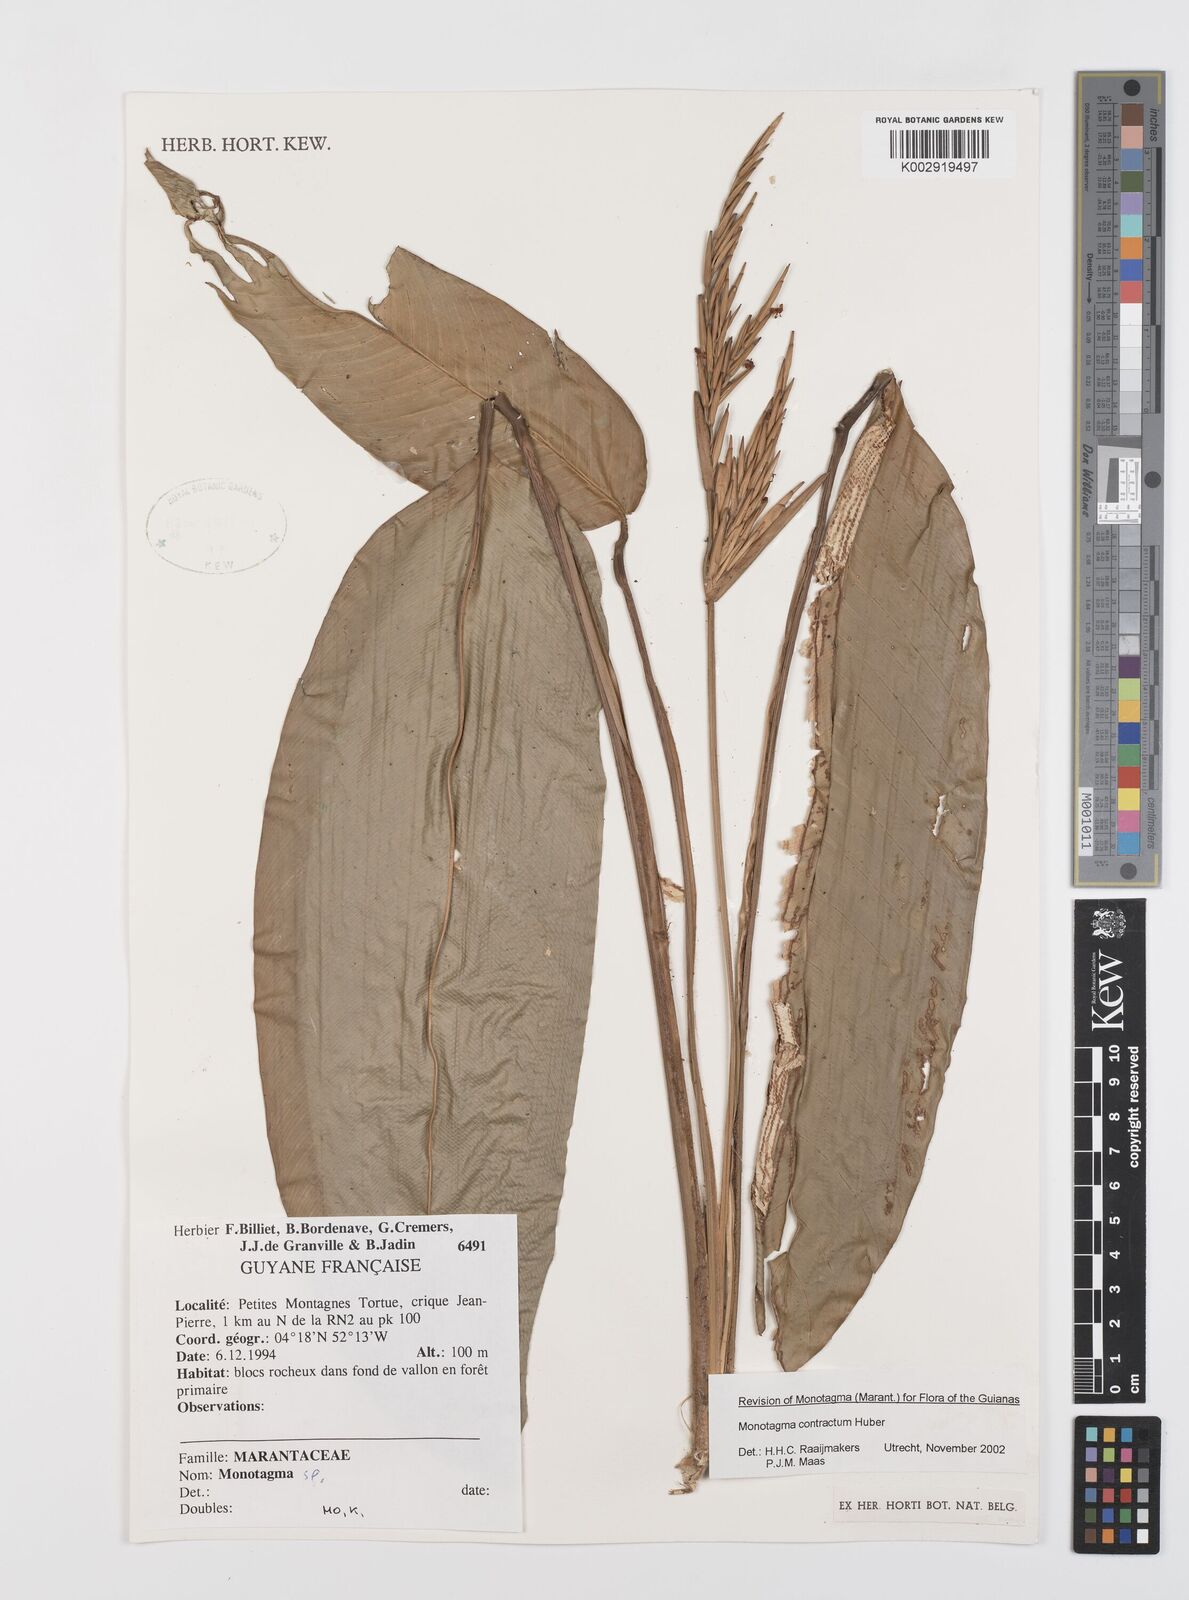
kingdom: Plantae
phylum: Tracheophyta
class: Liliopsida
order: Zingiberales
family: Marantaceae
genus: Monotagma
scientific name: Monotagma contractum
